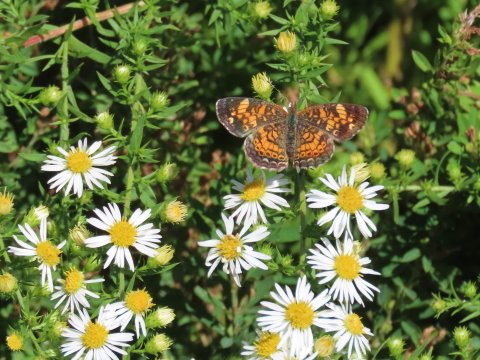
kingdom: Animalia
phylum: Arthropoda
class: Insecta
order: Lepidoptera
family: Nymphalidae
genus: Phyciodes
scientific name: Phyciodes tharos
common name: Pearl Crescent
